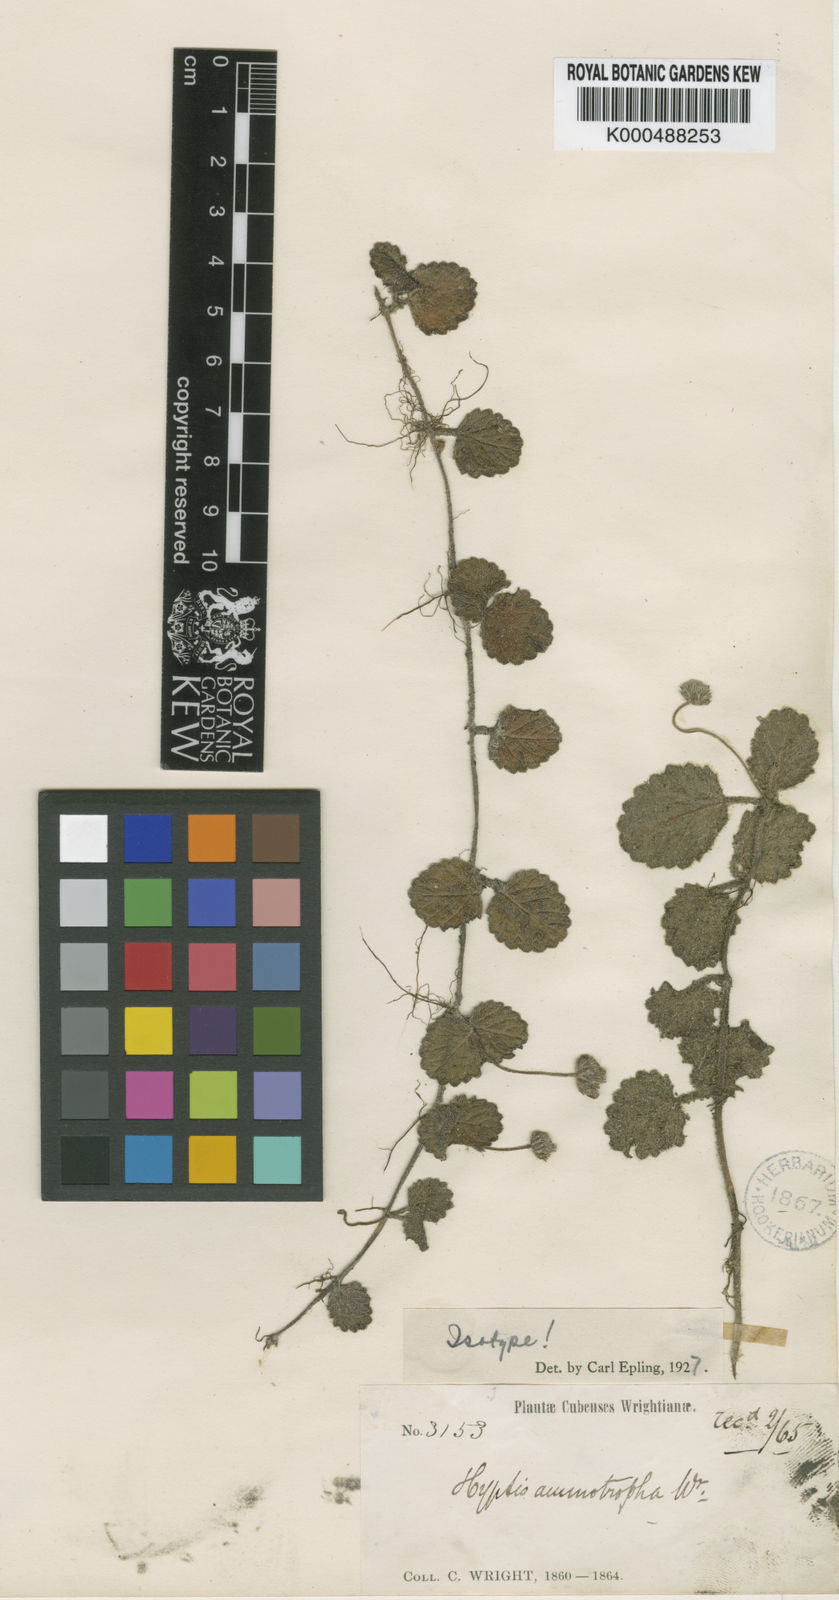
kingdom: Plantae
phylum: Tracheophyta
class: Magnoliopsida
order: Lamiales
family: Lamiaceae
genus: Hyptis
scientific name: Hyptis ammotropha
